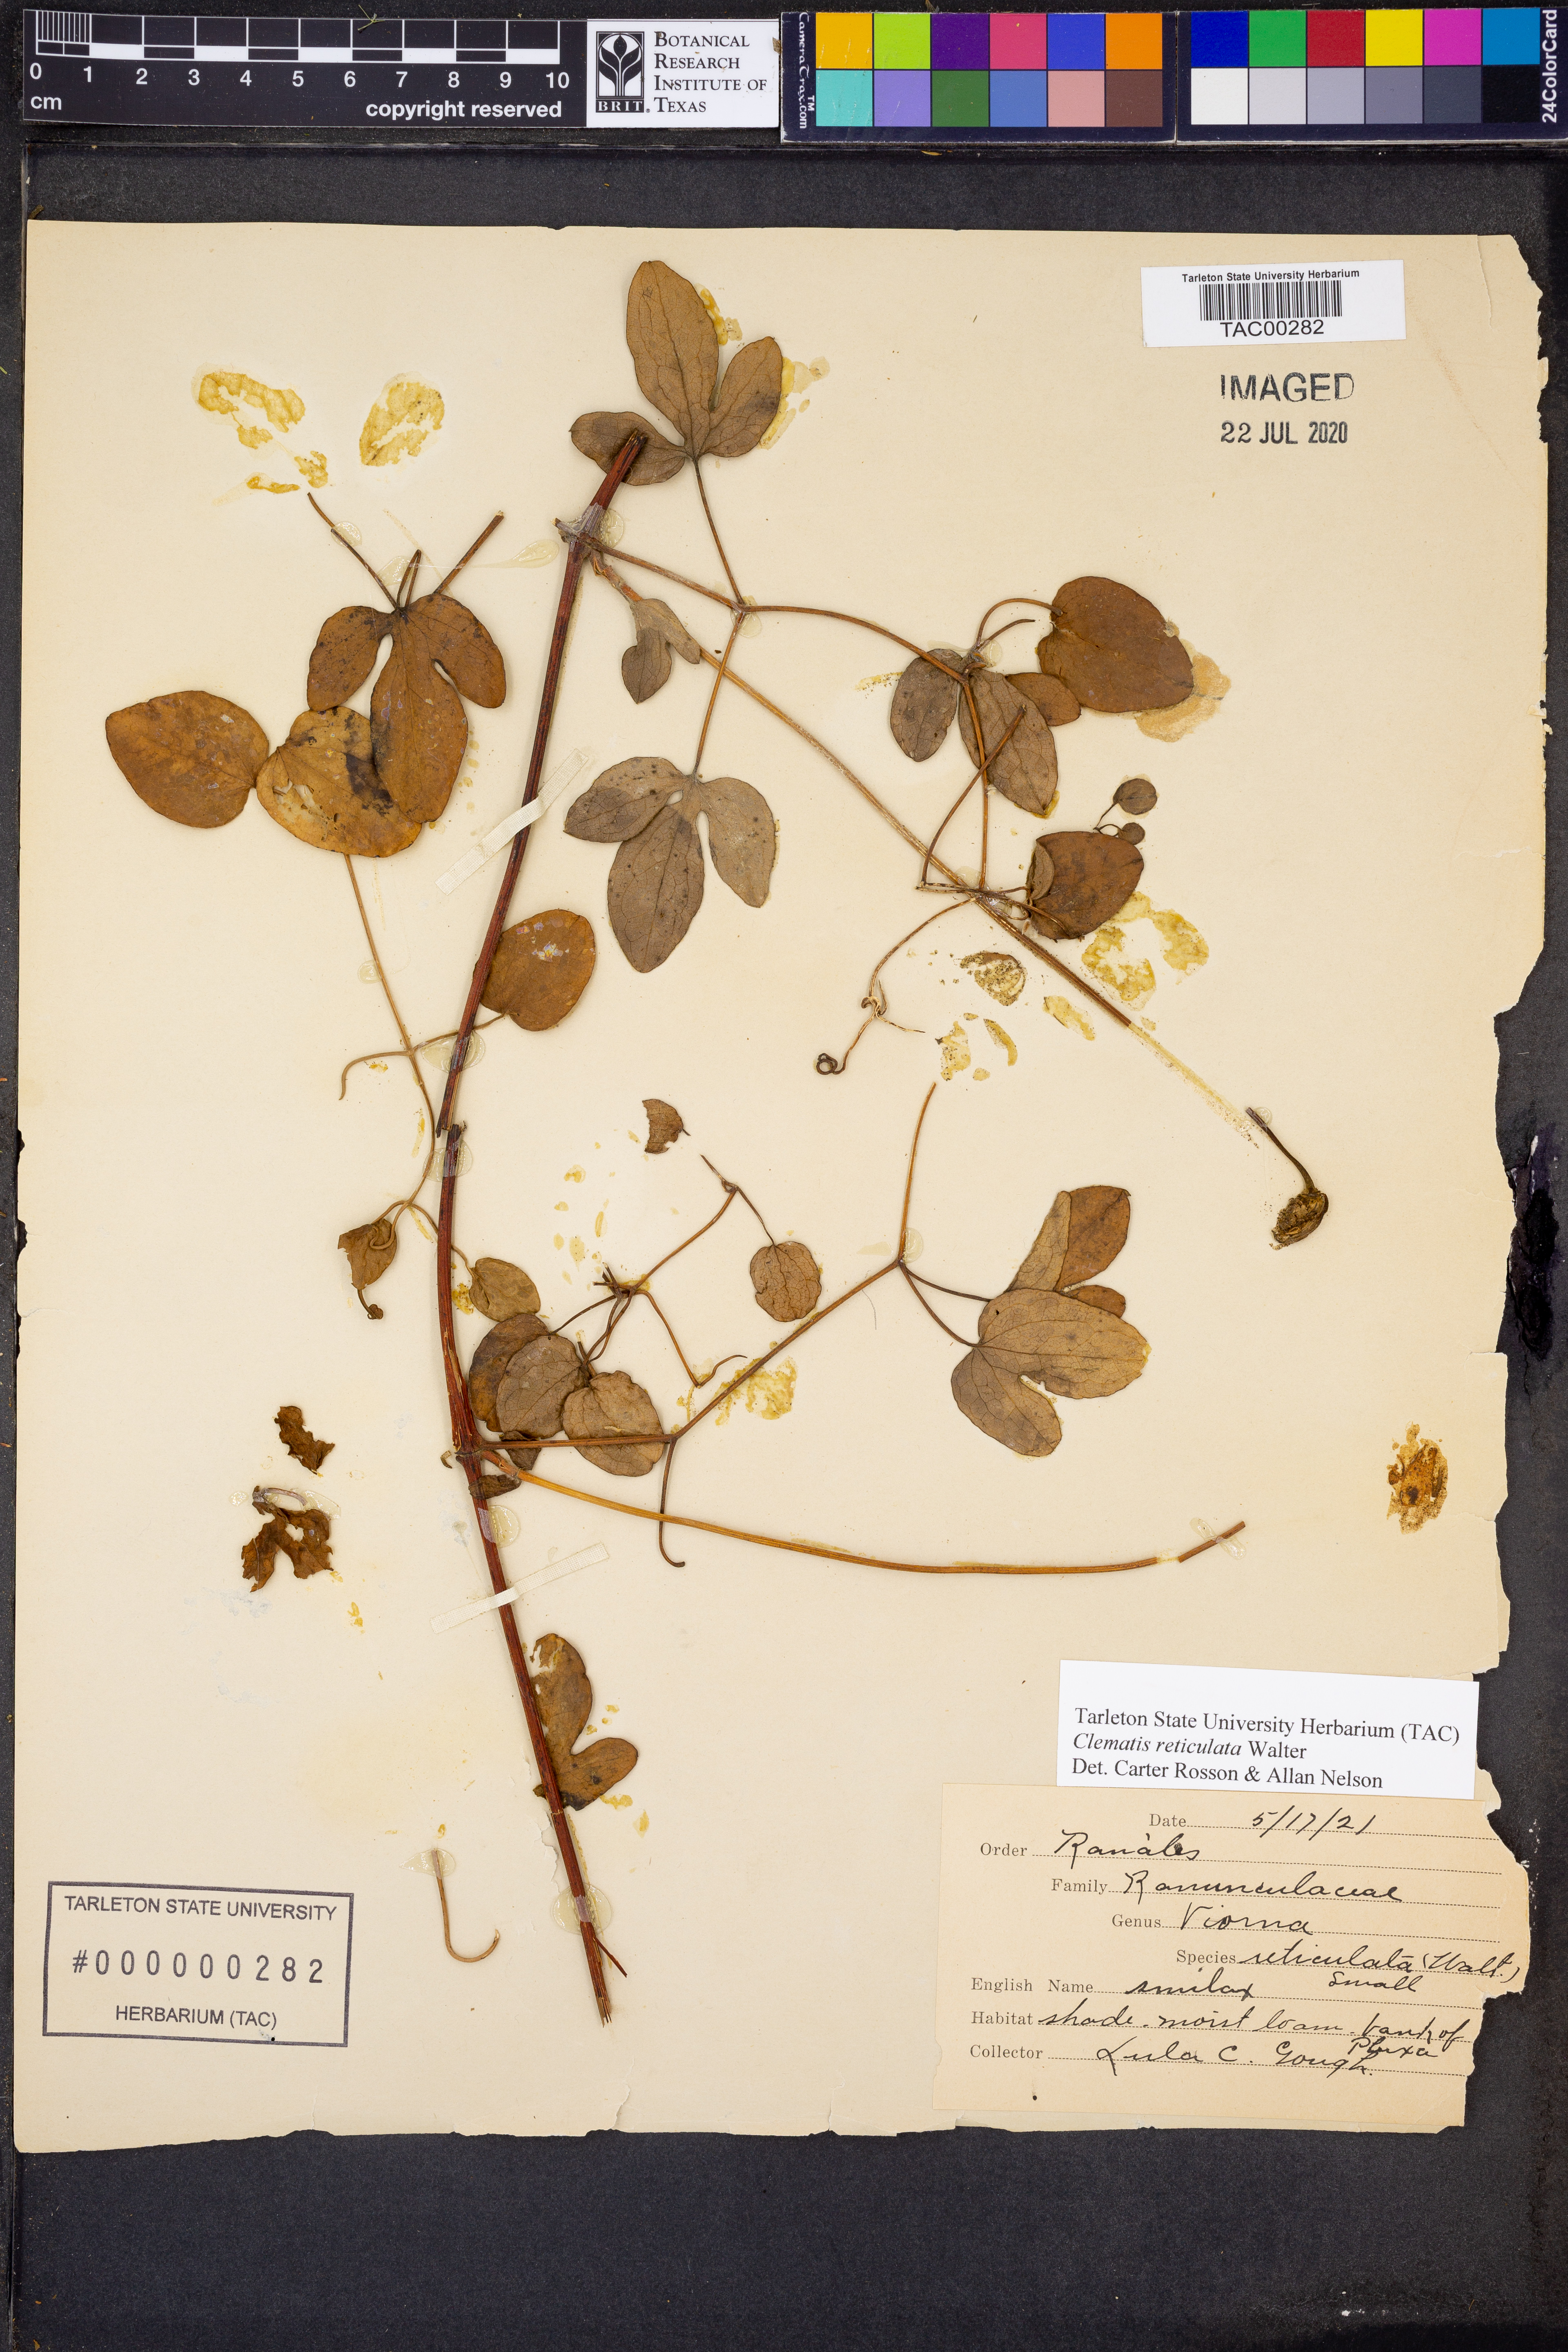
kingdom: Plantae
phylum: Tracheophyta
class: Magnoliopsida
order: Ranunculales
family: Ranunculaceae
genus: Clematis
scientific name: Clematis reticulata
